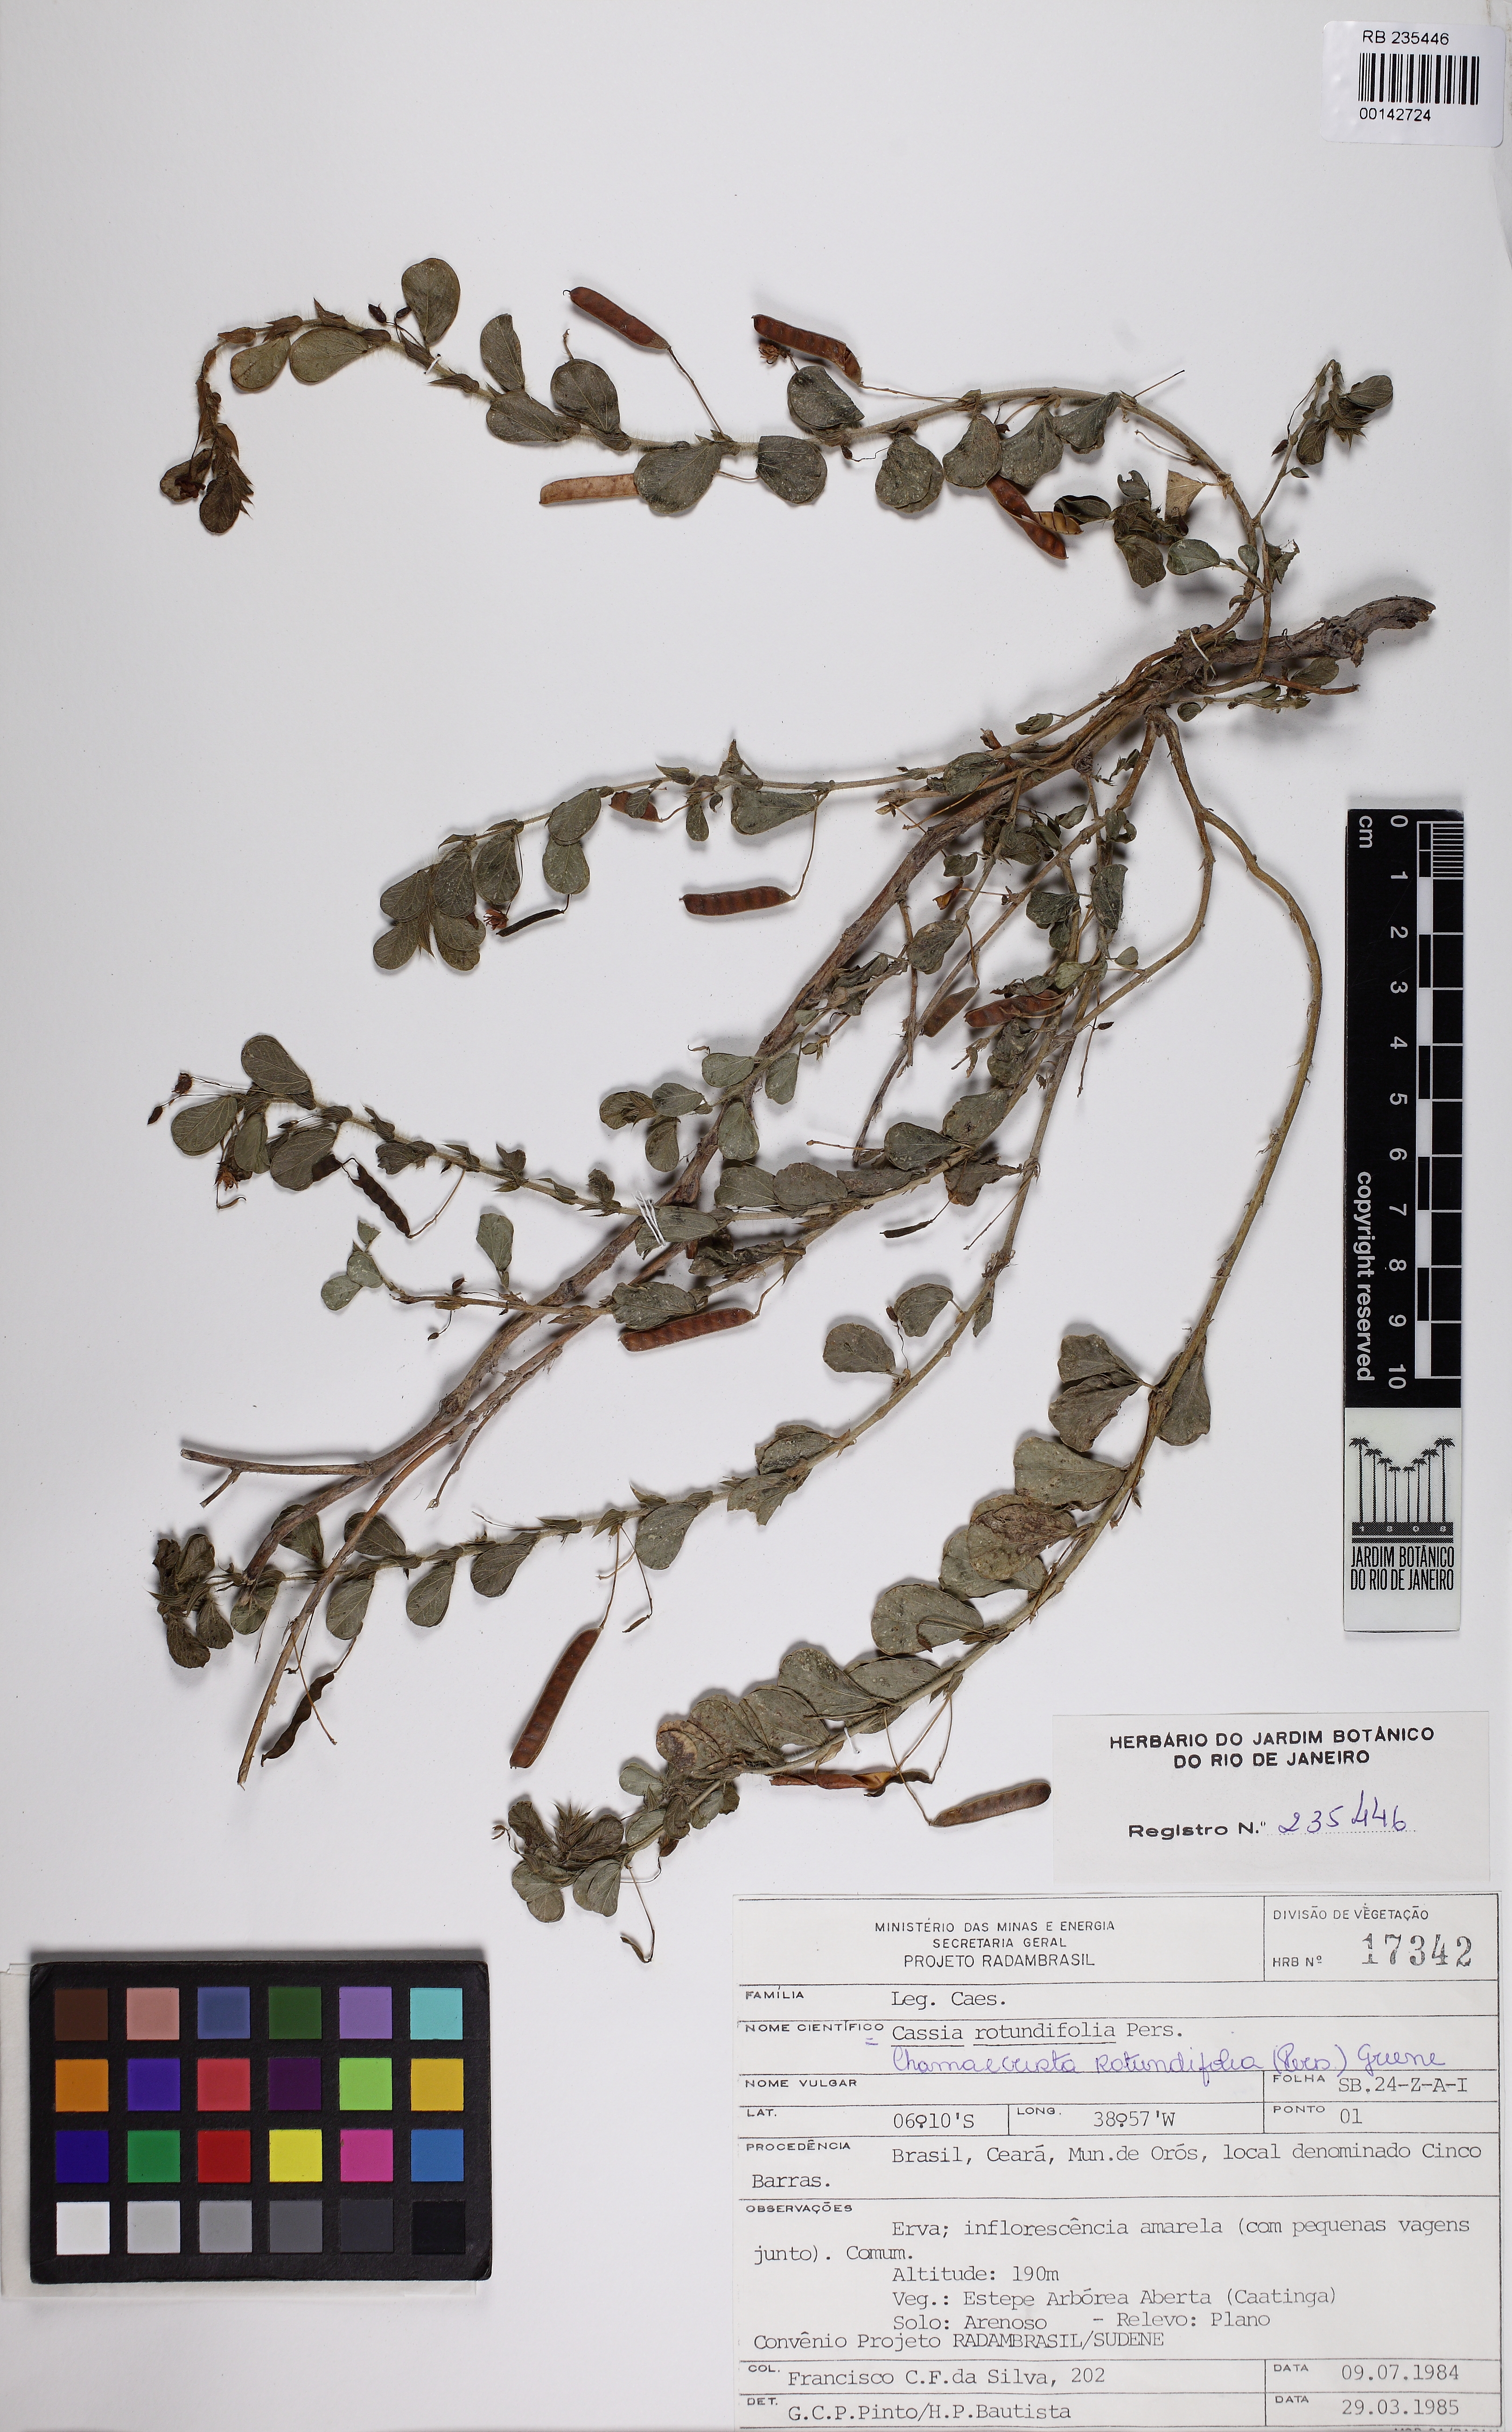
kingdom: Plantae
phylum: Tracheophyta
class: Magnoliopsida
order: Fabales
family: Fabaceae
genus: Chamaecrista
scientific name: Chamaecrista rotundifolia
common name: Round-leaf cassia
